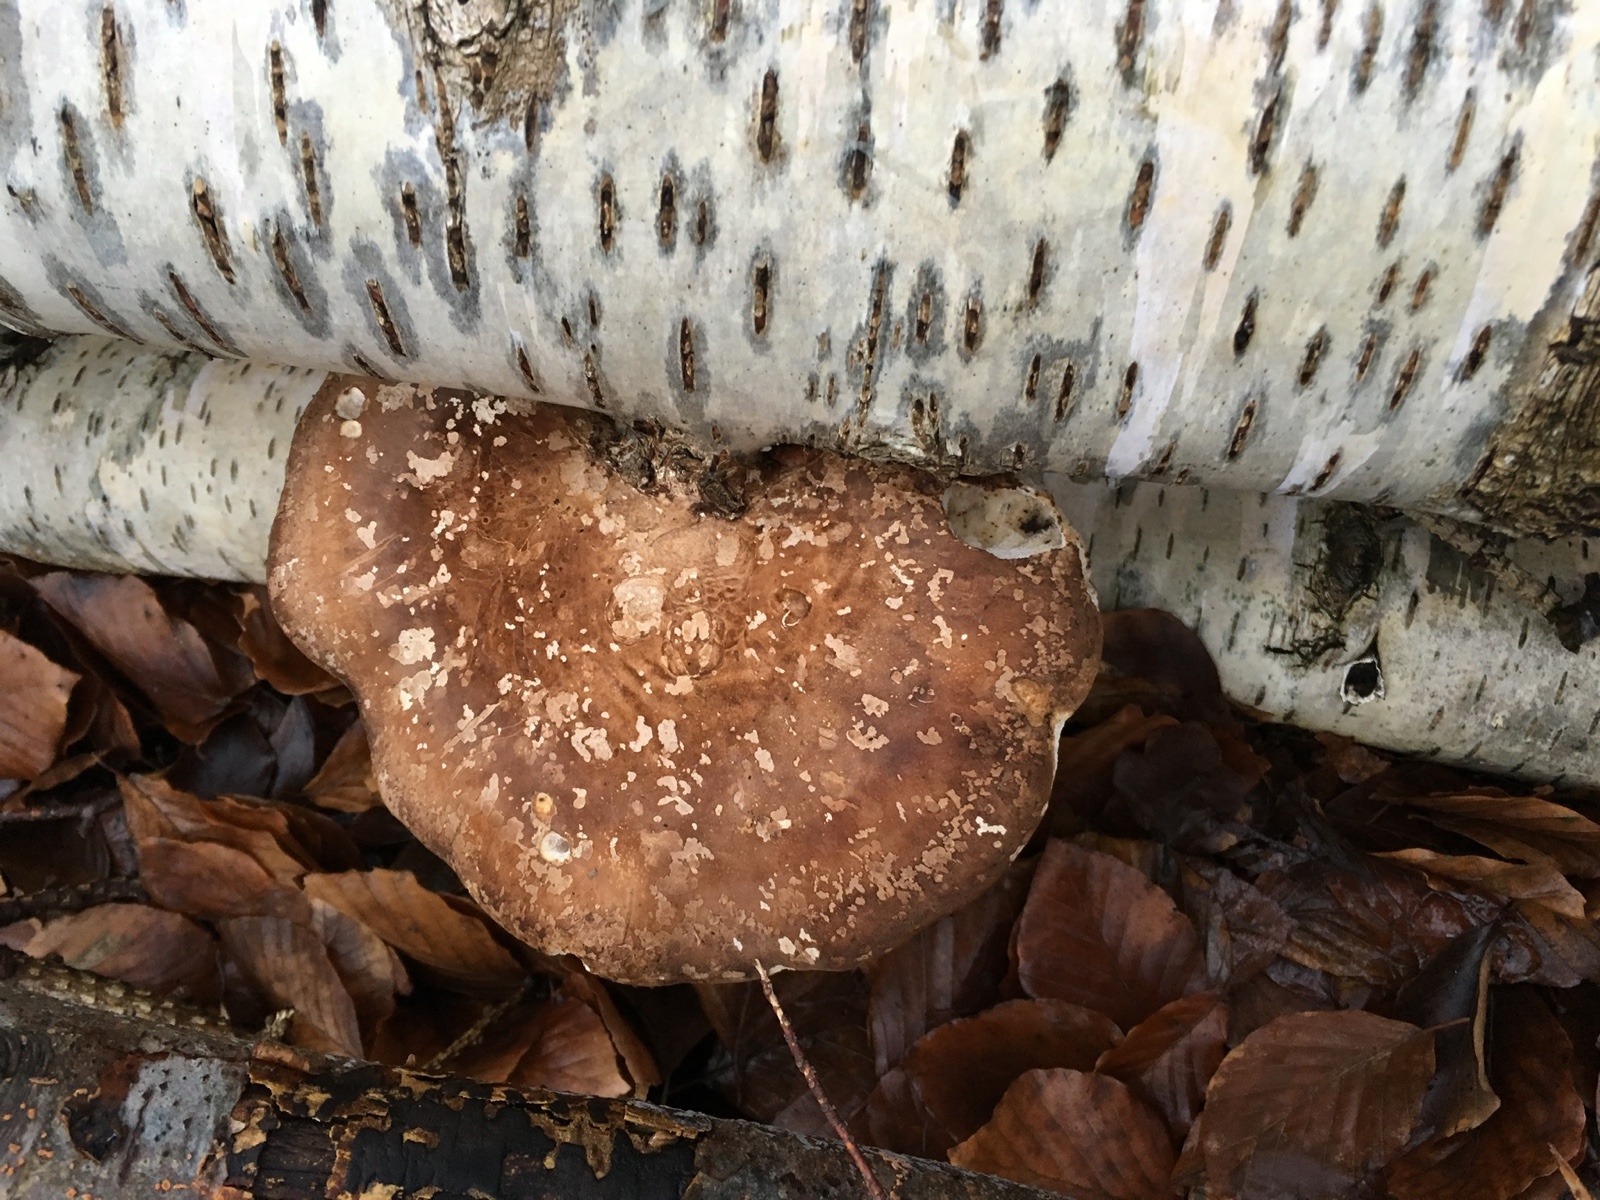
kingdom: Fungi
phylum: Basidiomycota
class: Agaricomycetes
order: Polyporales
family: Fomitopsidaceae
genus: Fomitopsis
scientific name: Fomitopsis betulina
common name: birkeporesvamp
